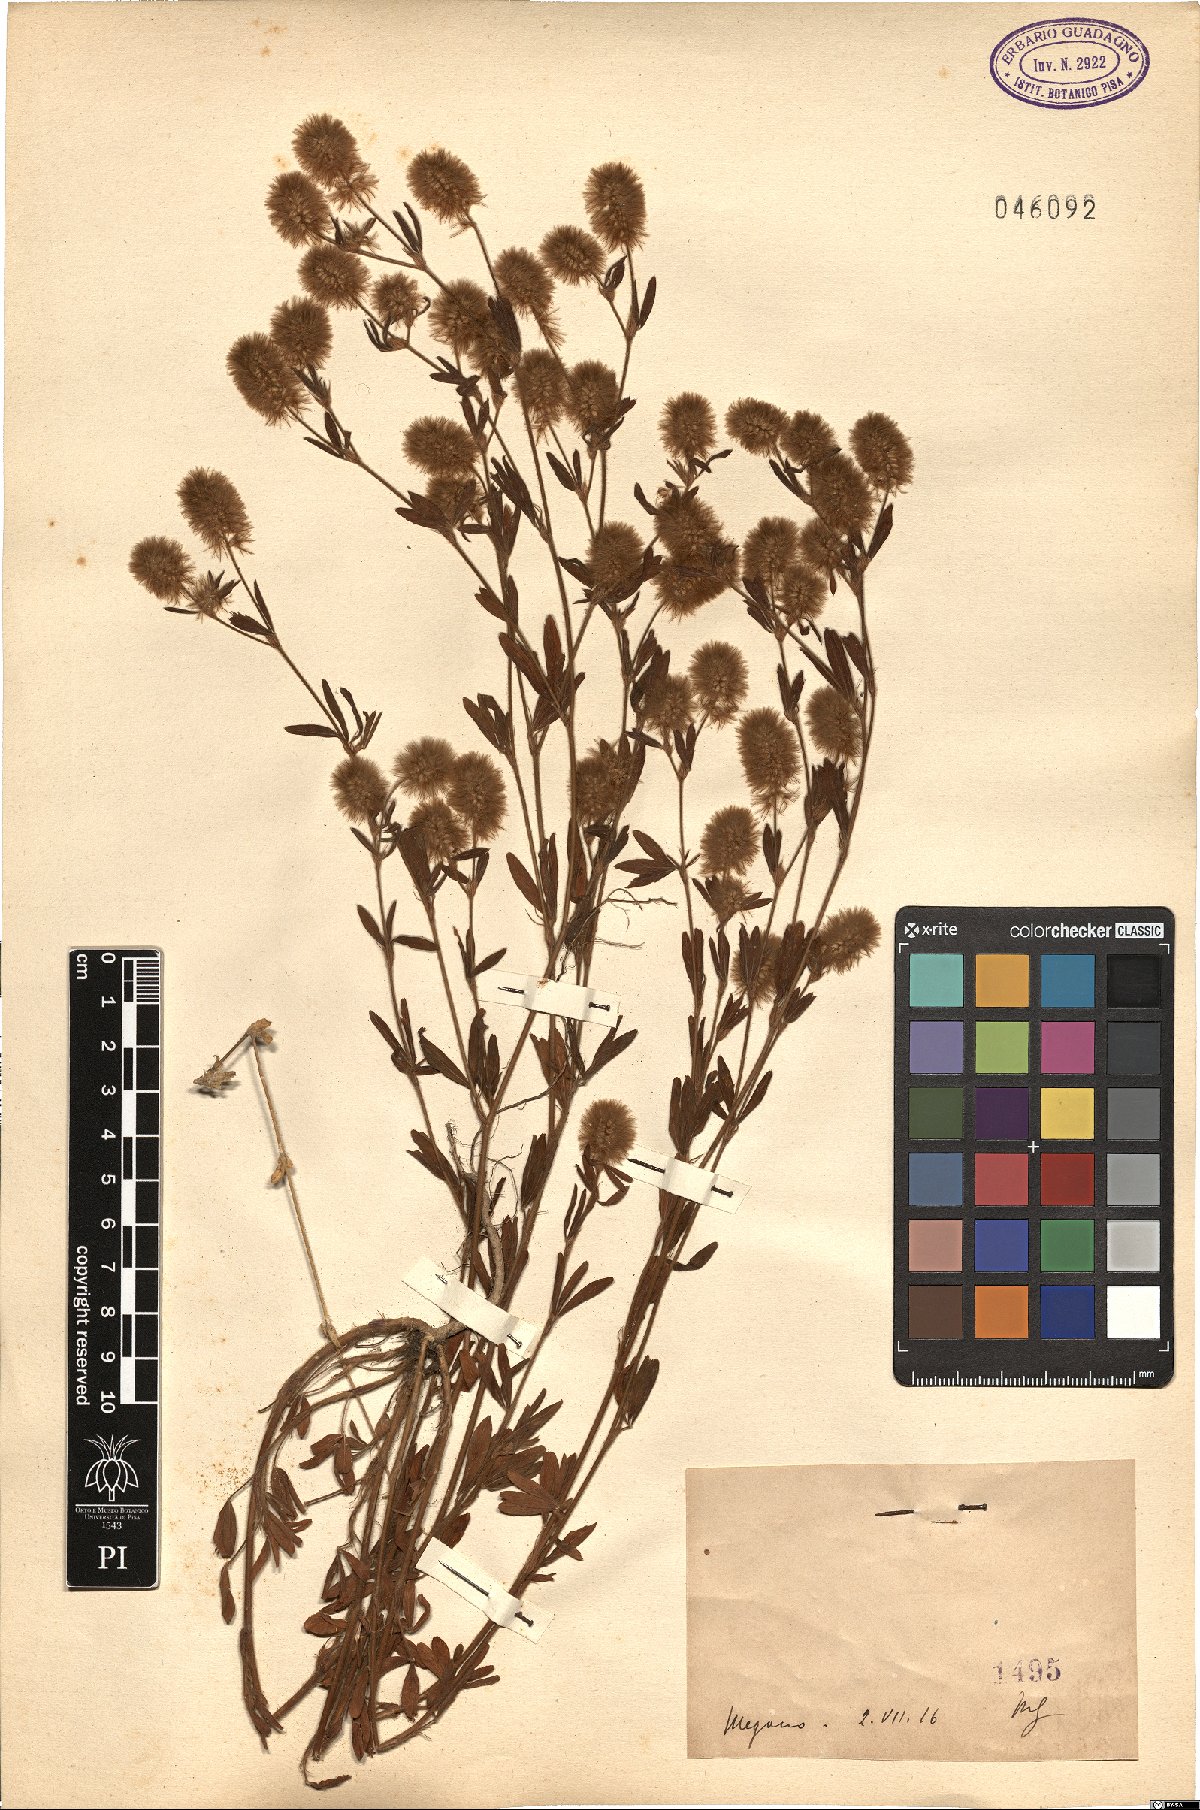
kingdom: Plantae
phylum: Tracheophyta
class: Magnoliopsida
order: Fabales
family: Fabaceae
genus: Trifolium
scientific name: Trifolium
